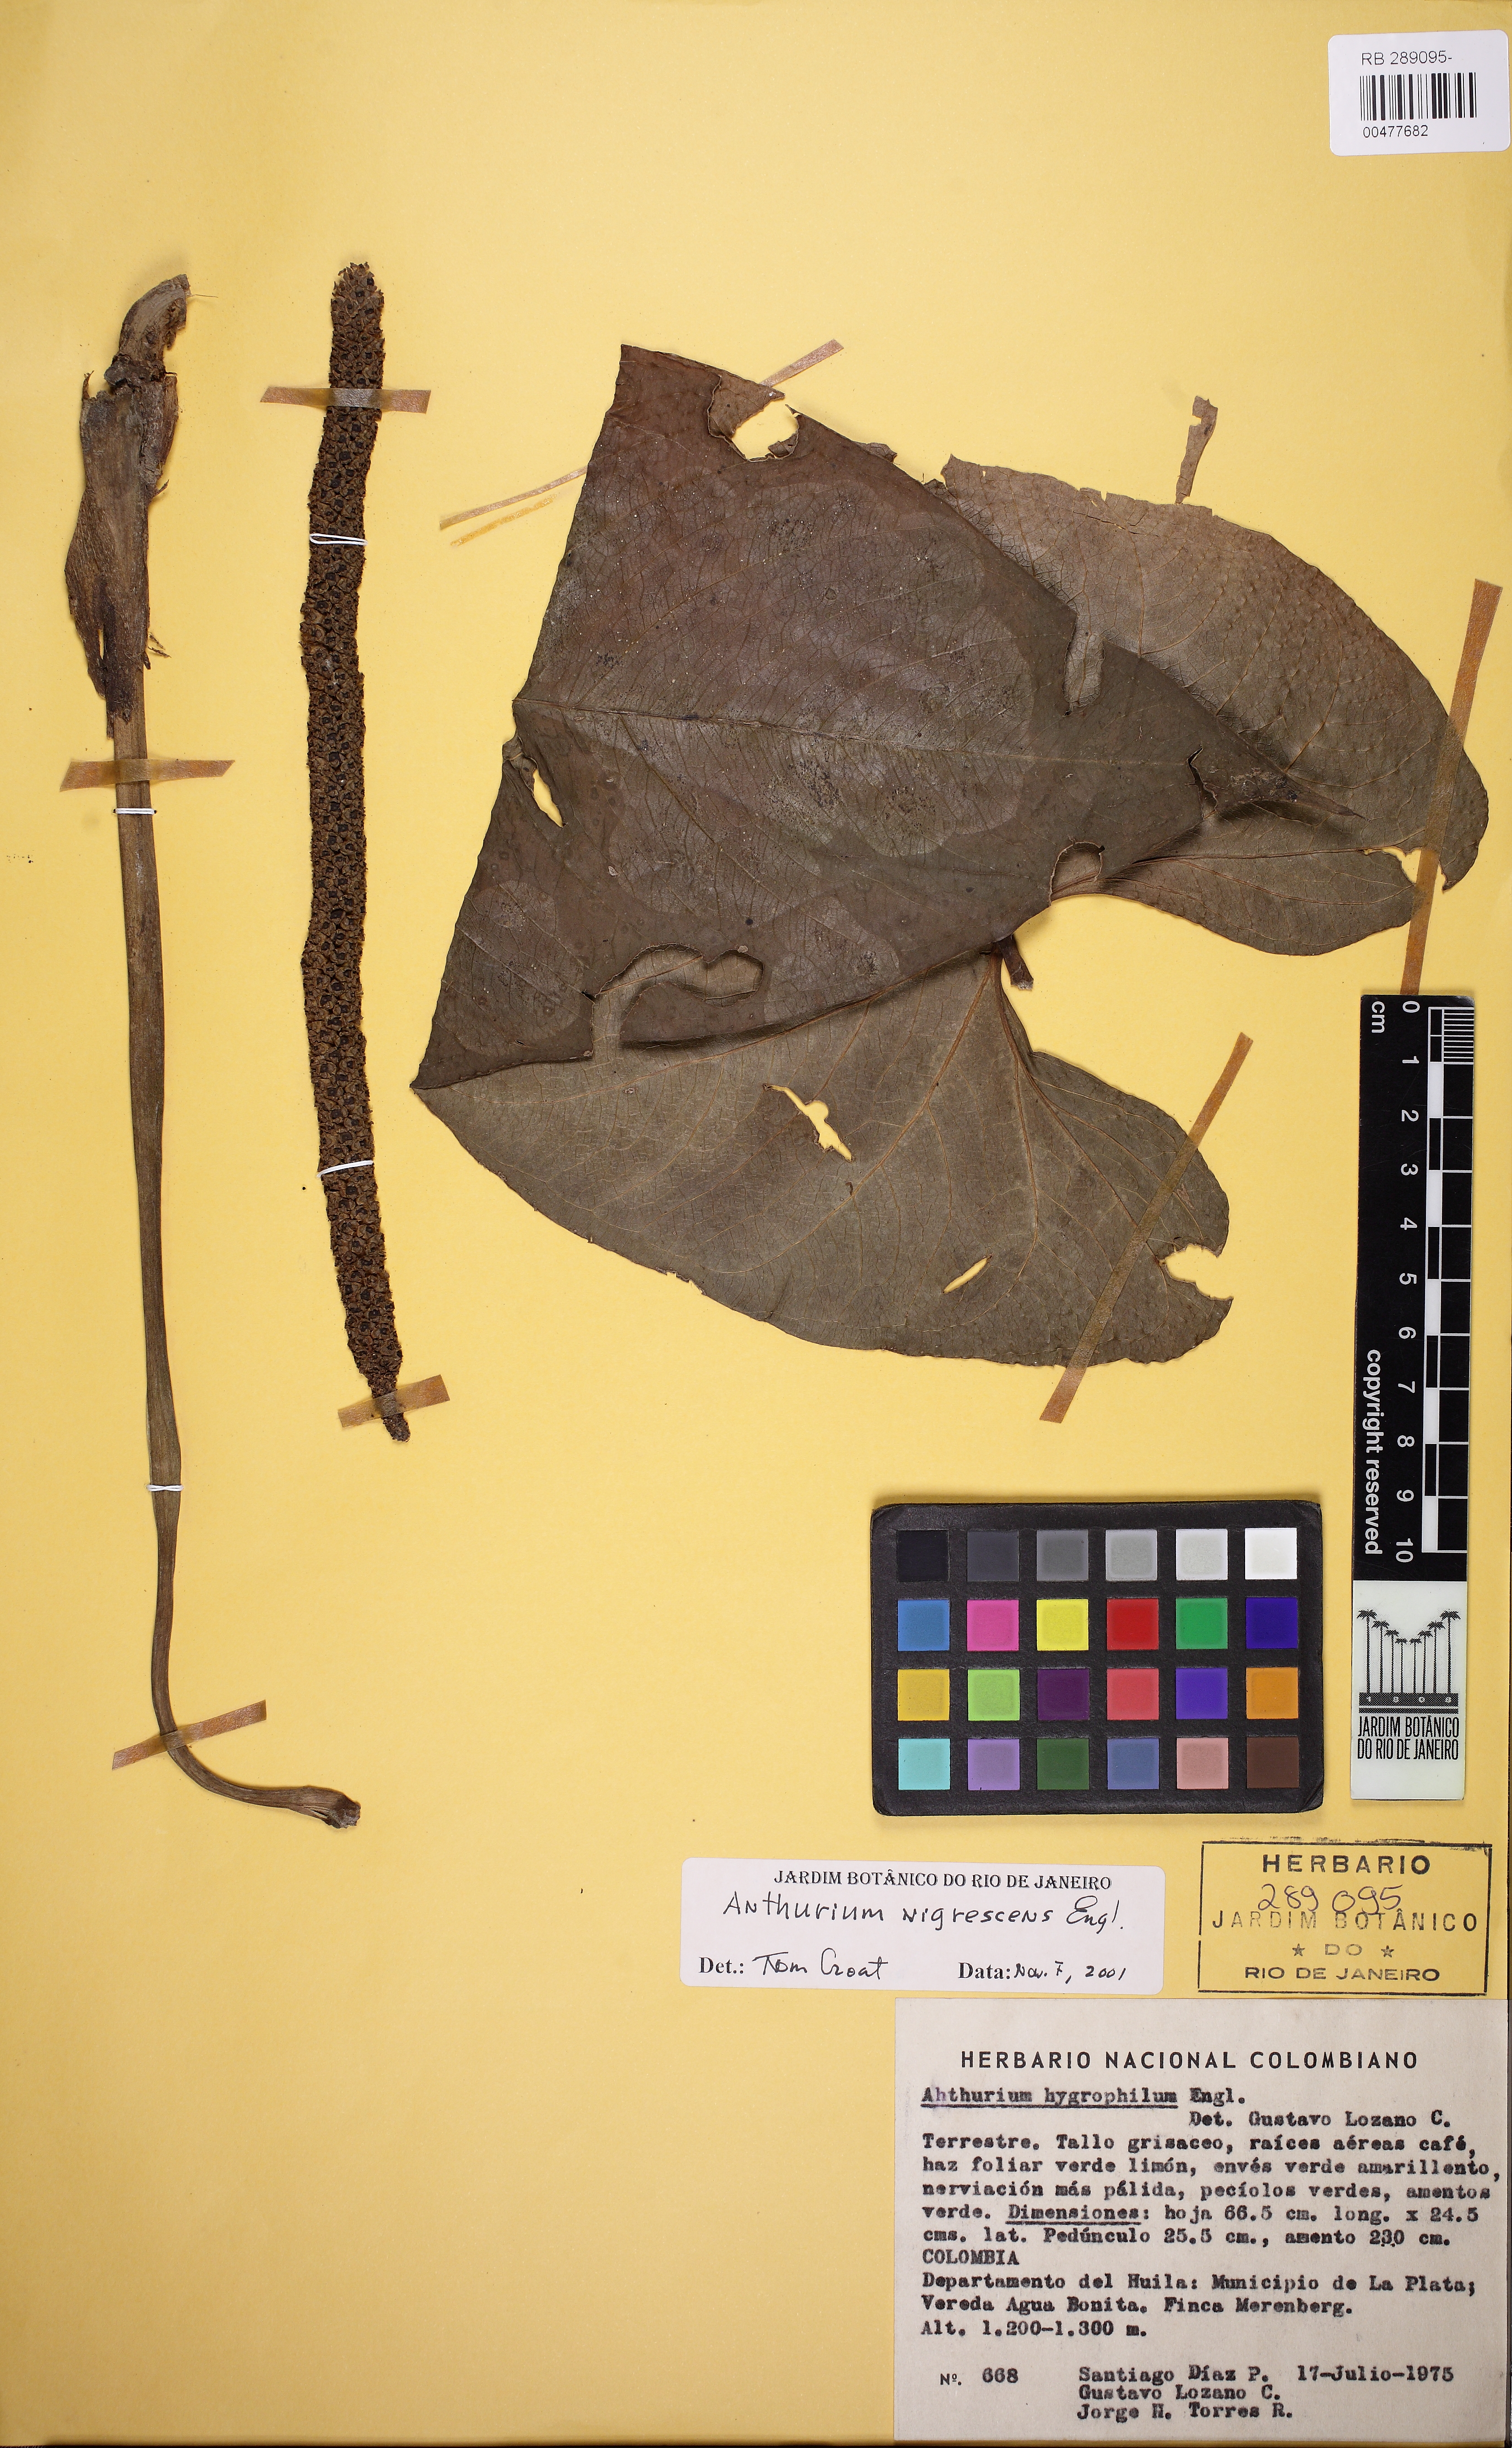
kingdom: Plantae
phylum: Tracheophyta
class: Liliopsida
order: Alismatales
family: Araceae
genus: Anthurium
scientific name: Anthurium nigrescens
